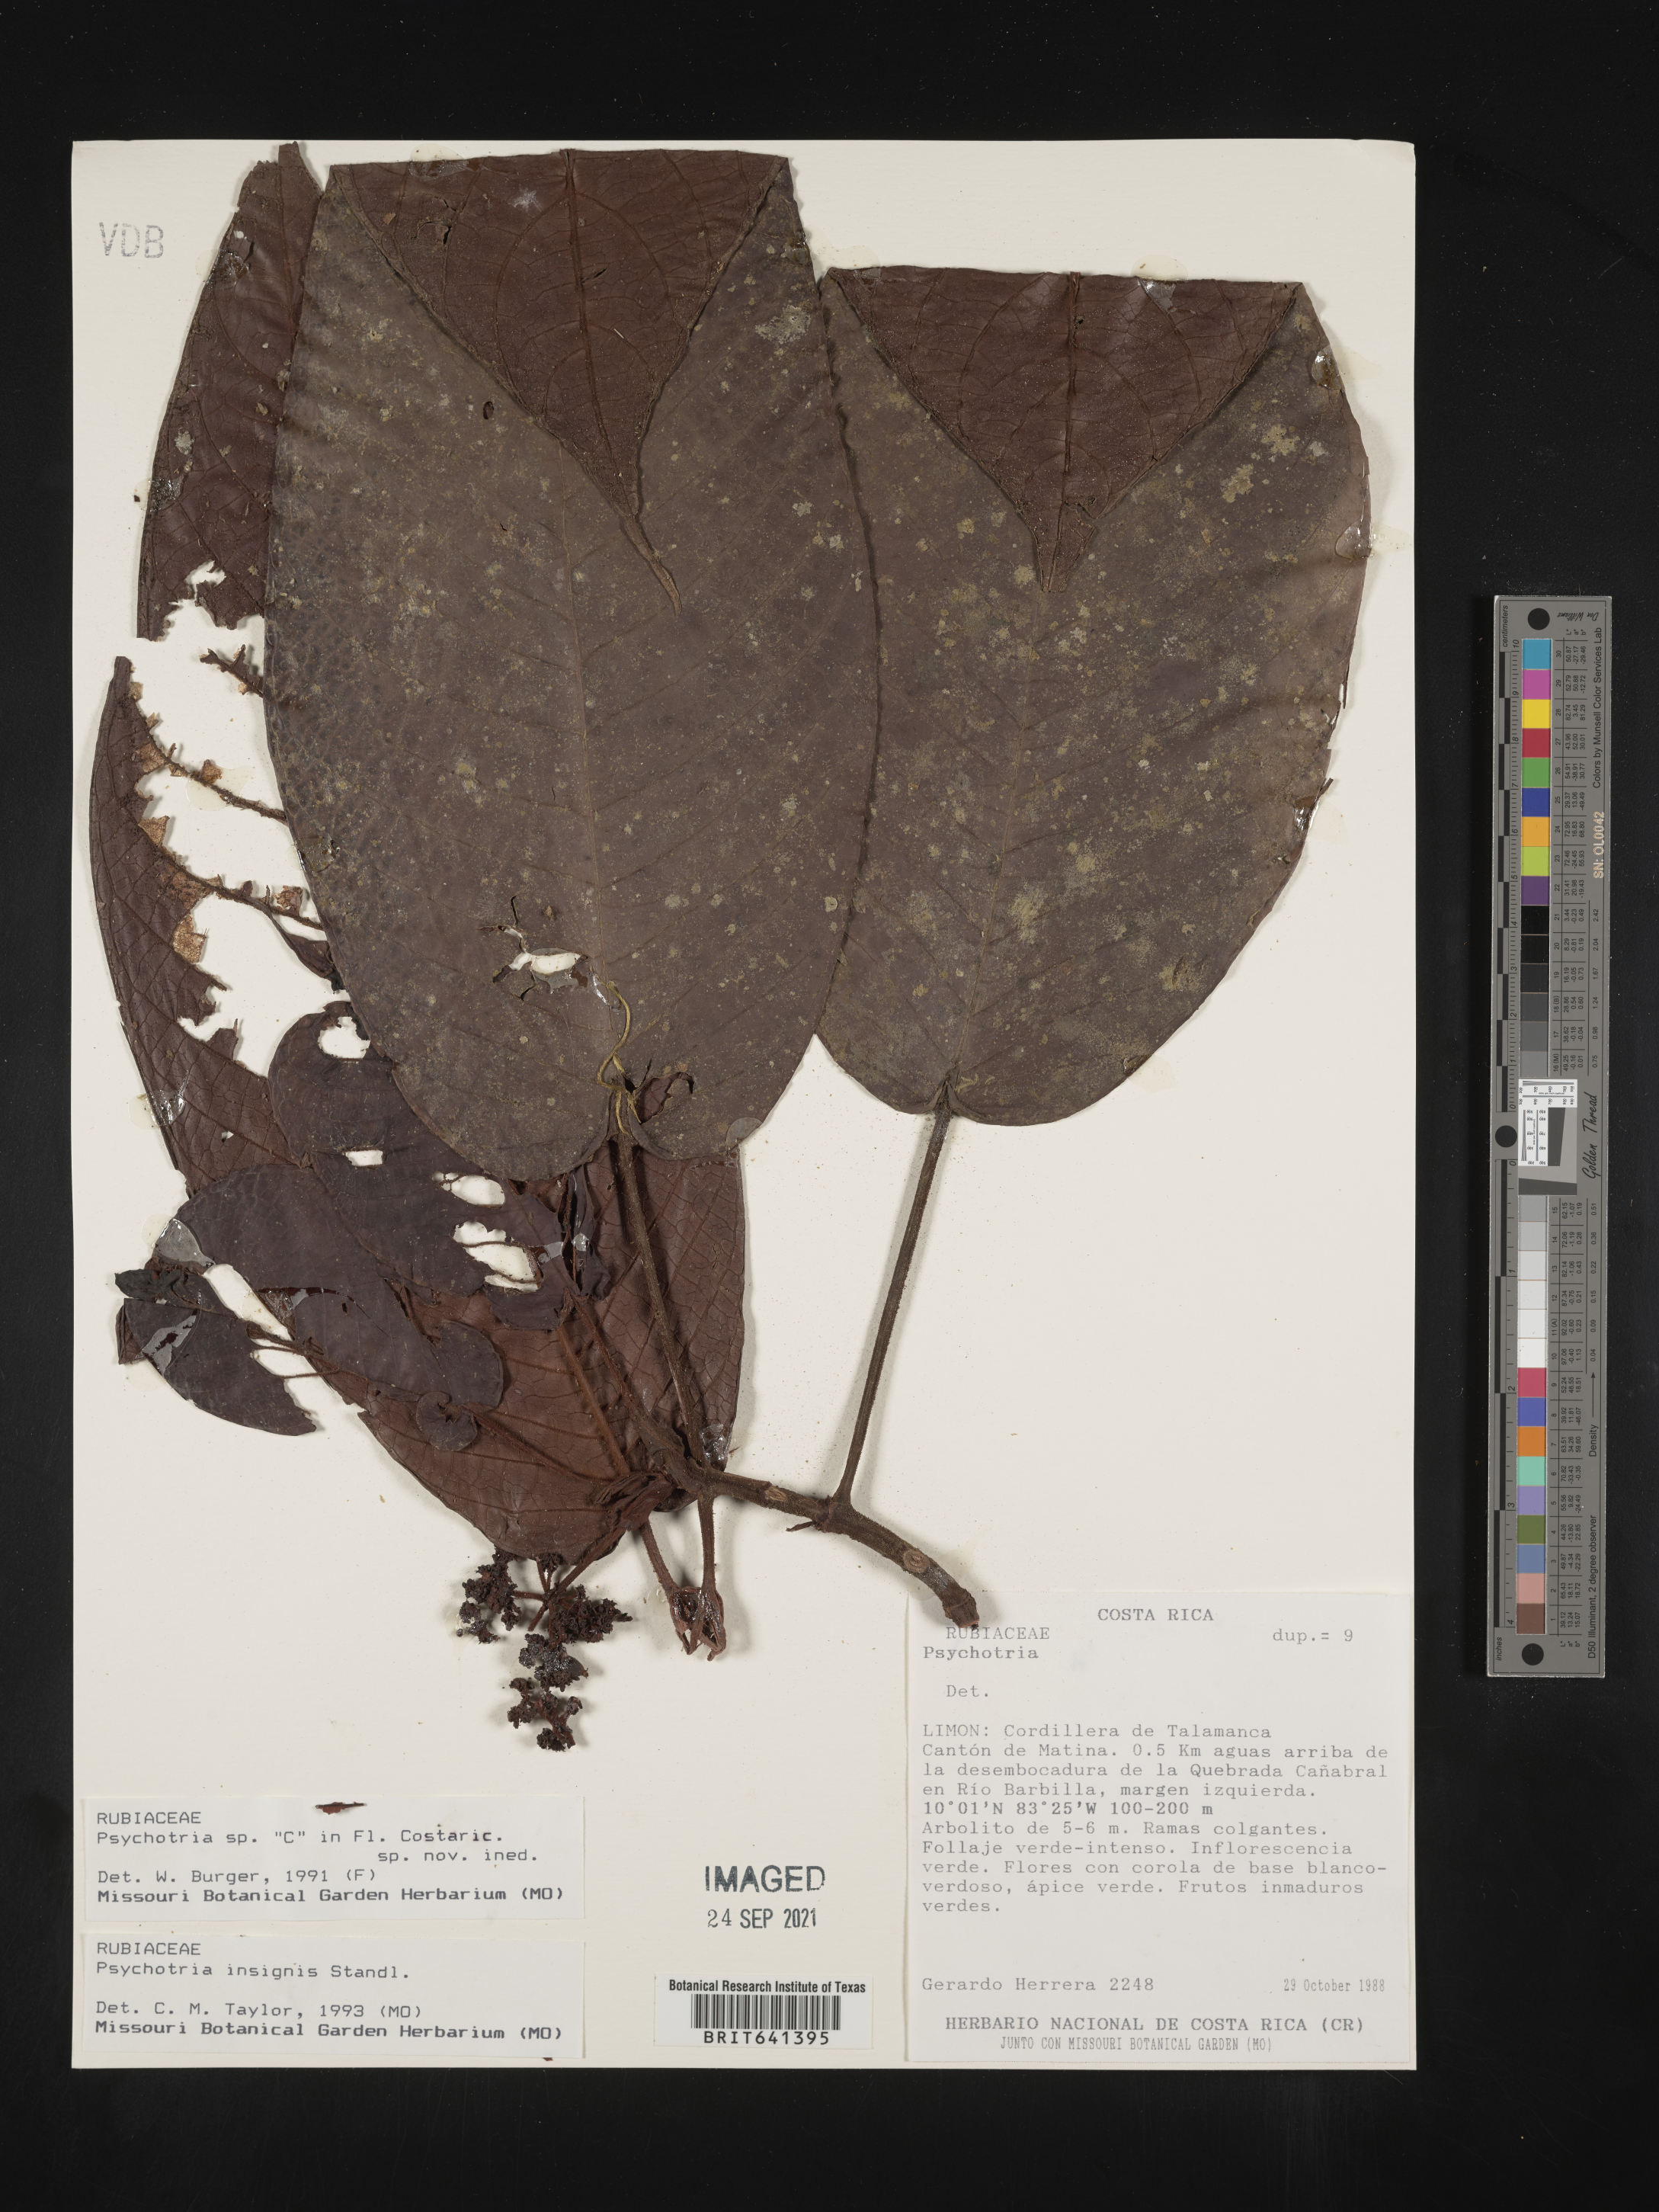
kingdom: Plantae
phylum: Tracheophyta
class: Magnoliopsida
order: Gentianales
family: Rubiaceae
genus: Psychotria
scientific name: Psychotria
